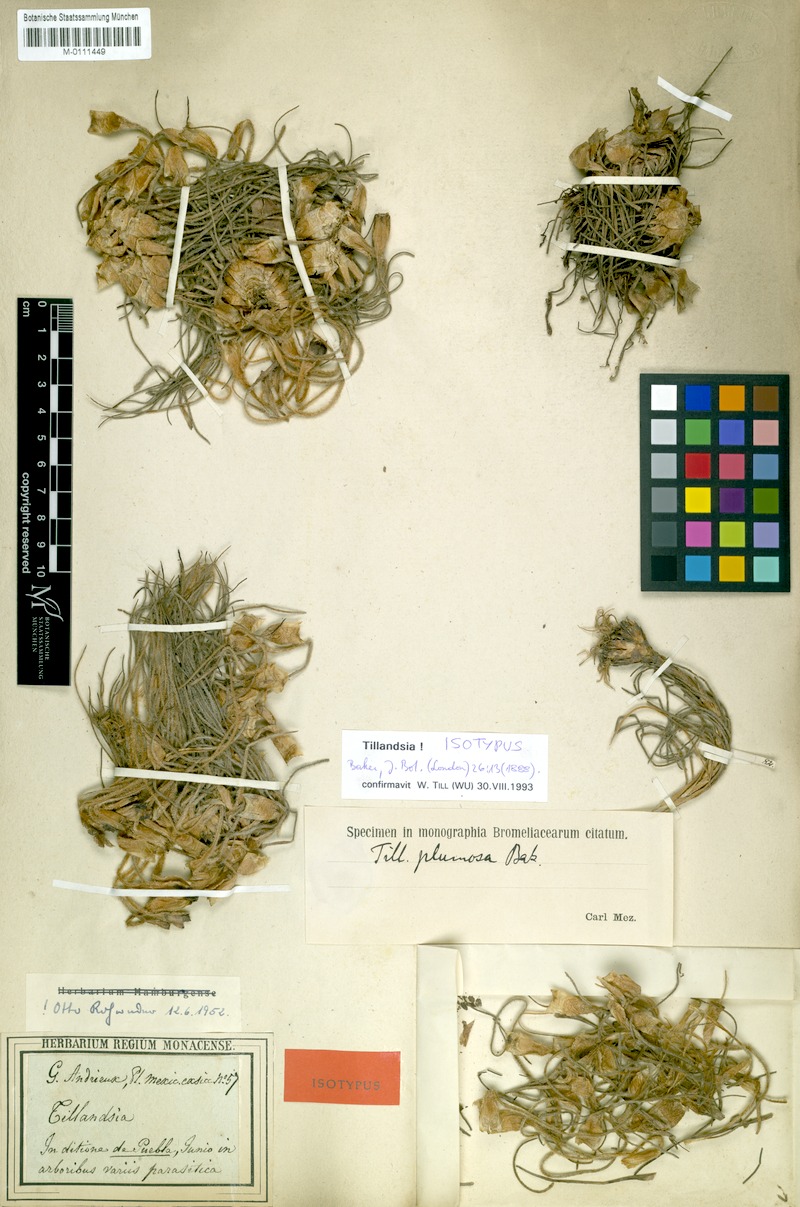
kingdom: Plantae
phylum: Tracheophyta
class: Liliopsida
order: Poales
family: Bromeliaceae
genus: Tillandsia
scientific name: Tillandsia plumosa
